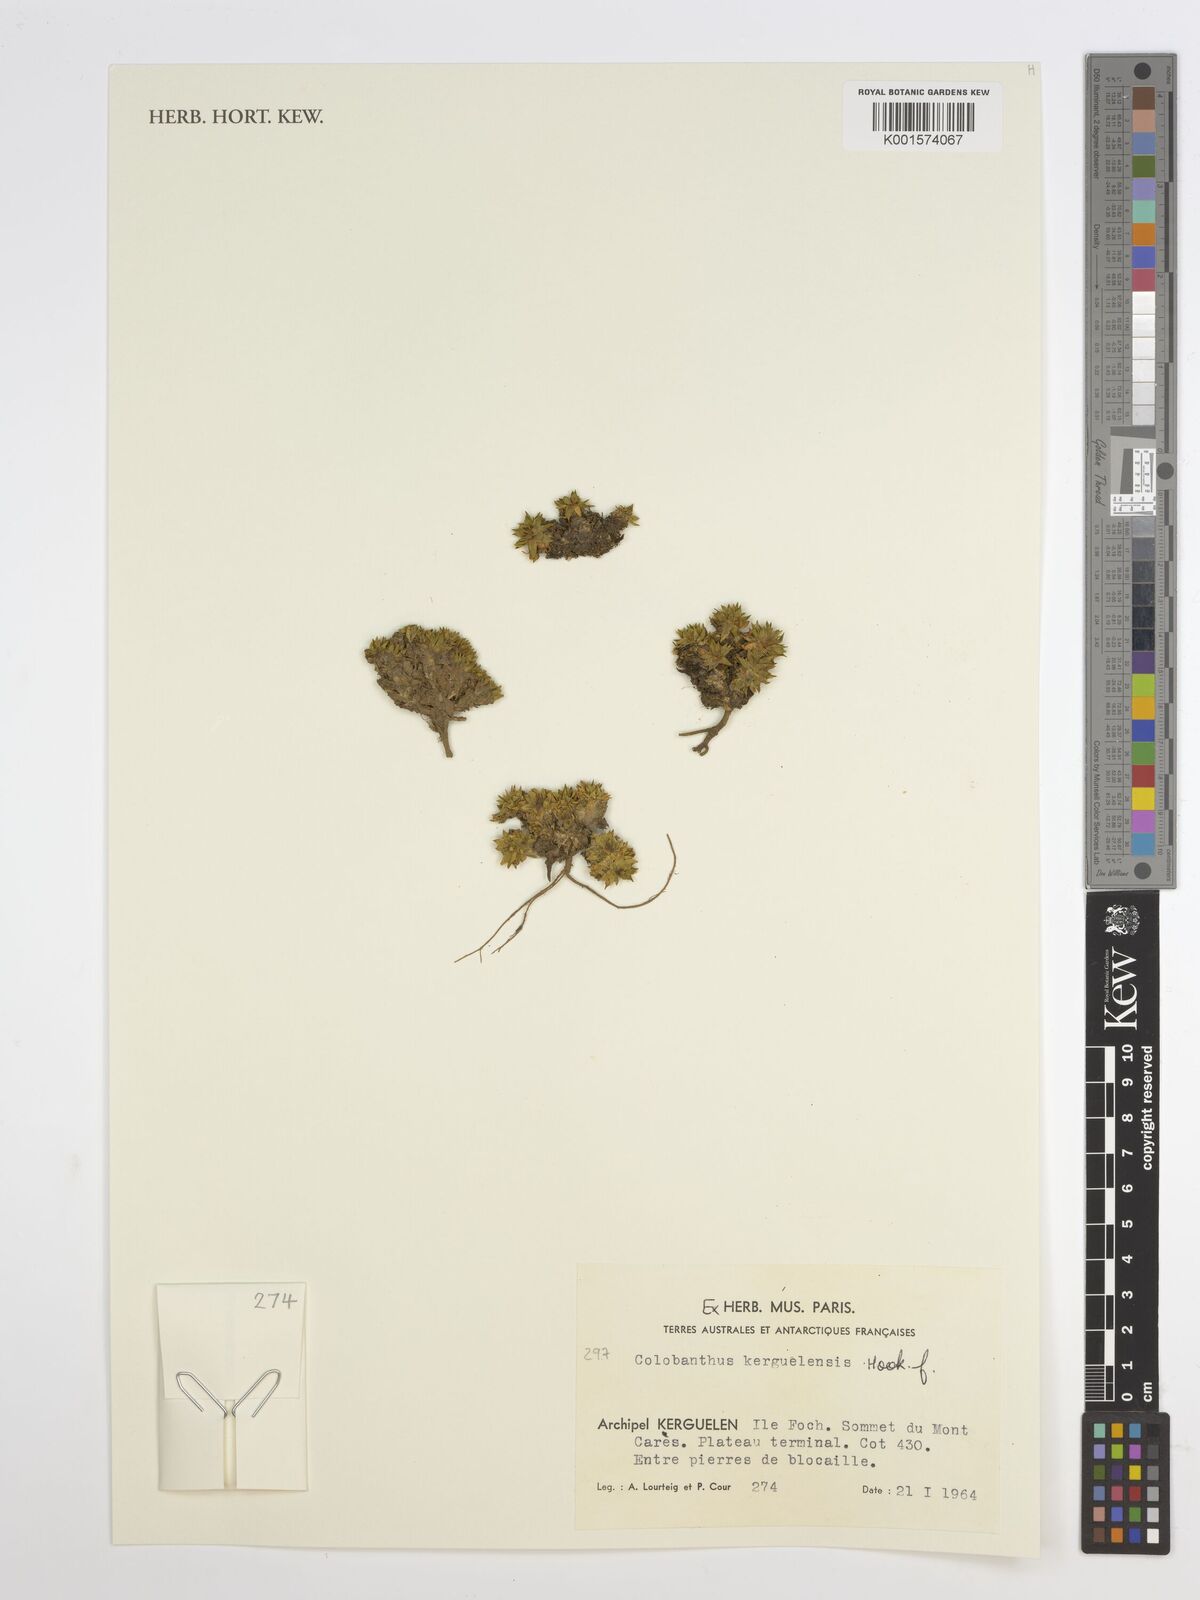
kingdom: Plantae
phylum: Tracheophyta
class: Magnoliopsida
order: Caryophyllales
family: Caryophyllaceae
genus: Colobanthus
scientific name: Colobanthus kerguelensis
